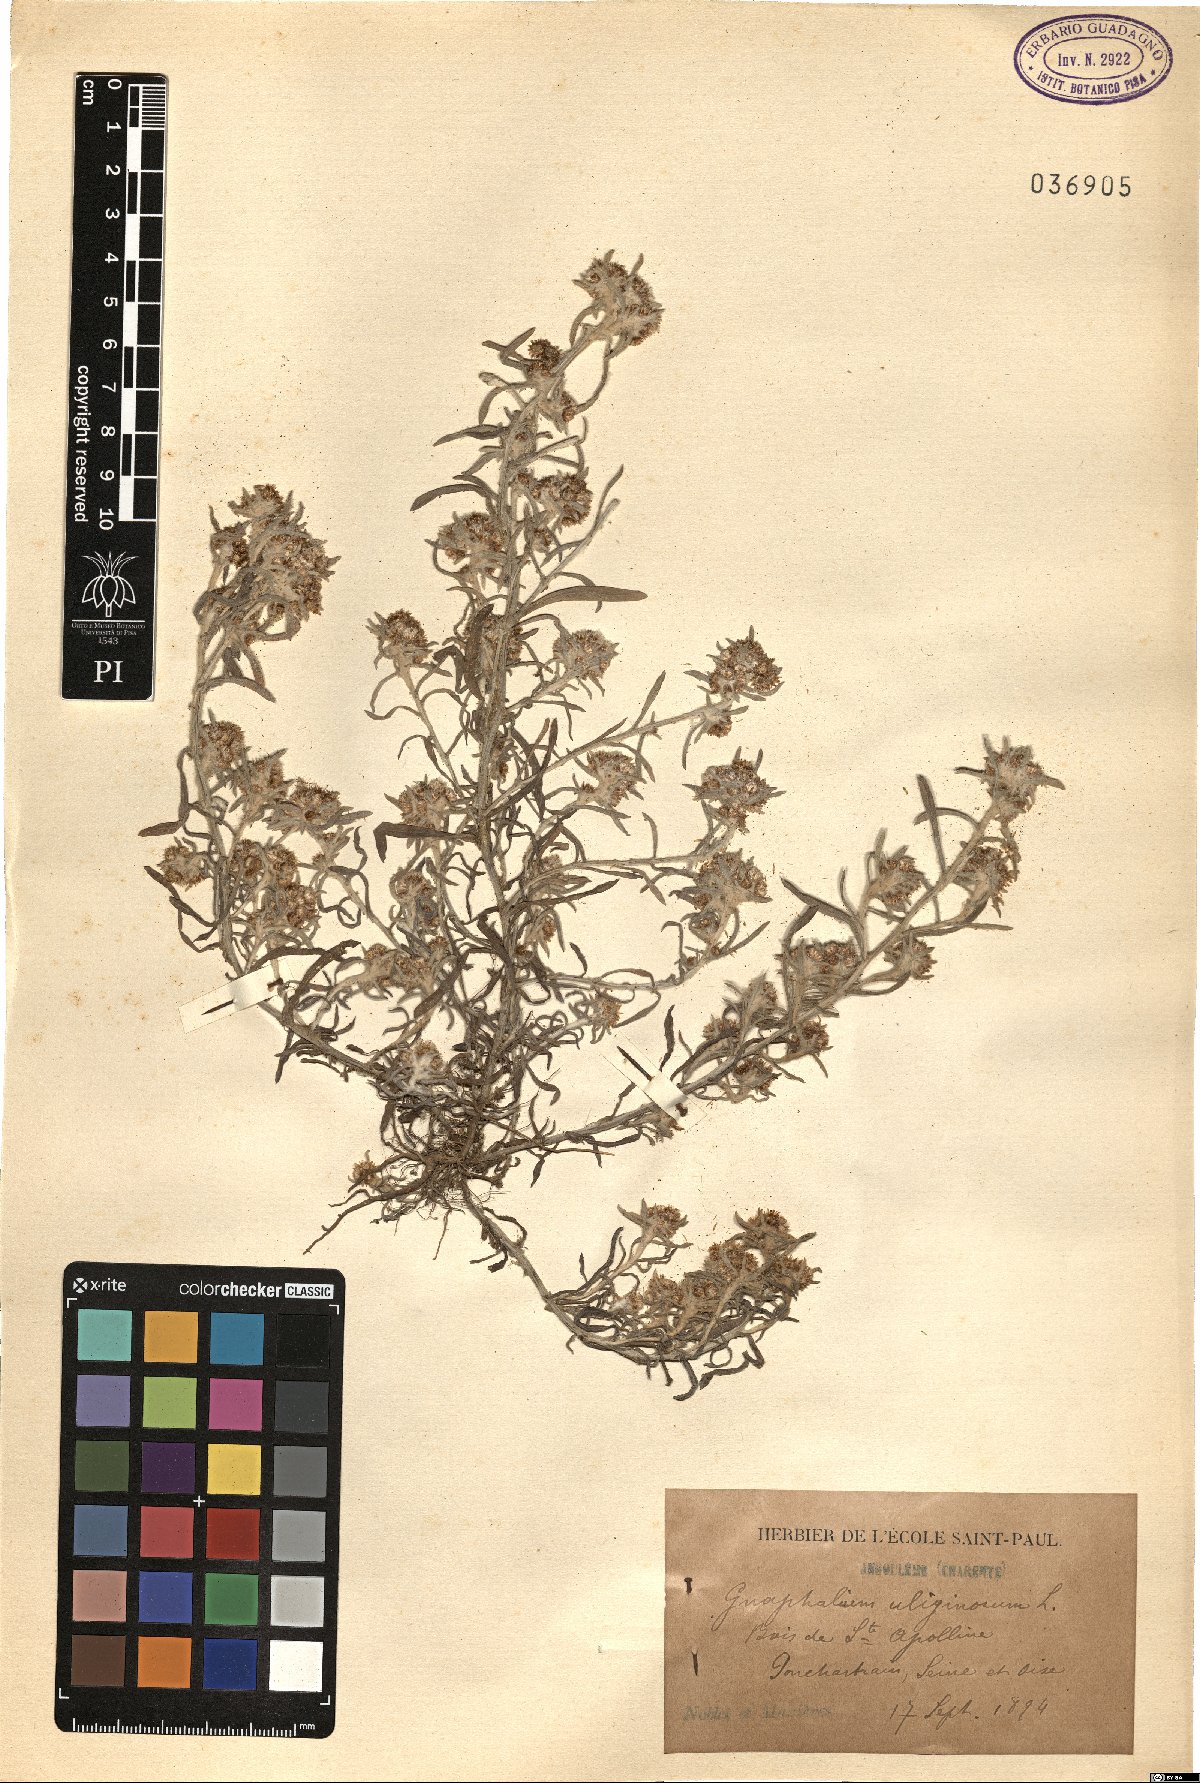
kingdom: Plantae
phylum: Tracheophyta
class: Magnoliopsida
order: Asterales
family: Asteraceae
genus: Gnaphalium
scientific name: Gnaphalium uliginosum
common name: Marsh cudweed
